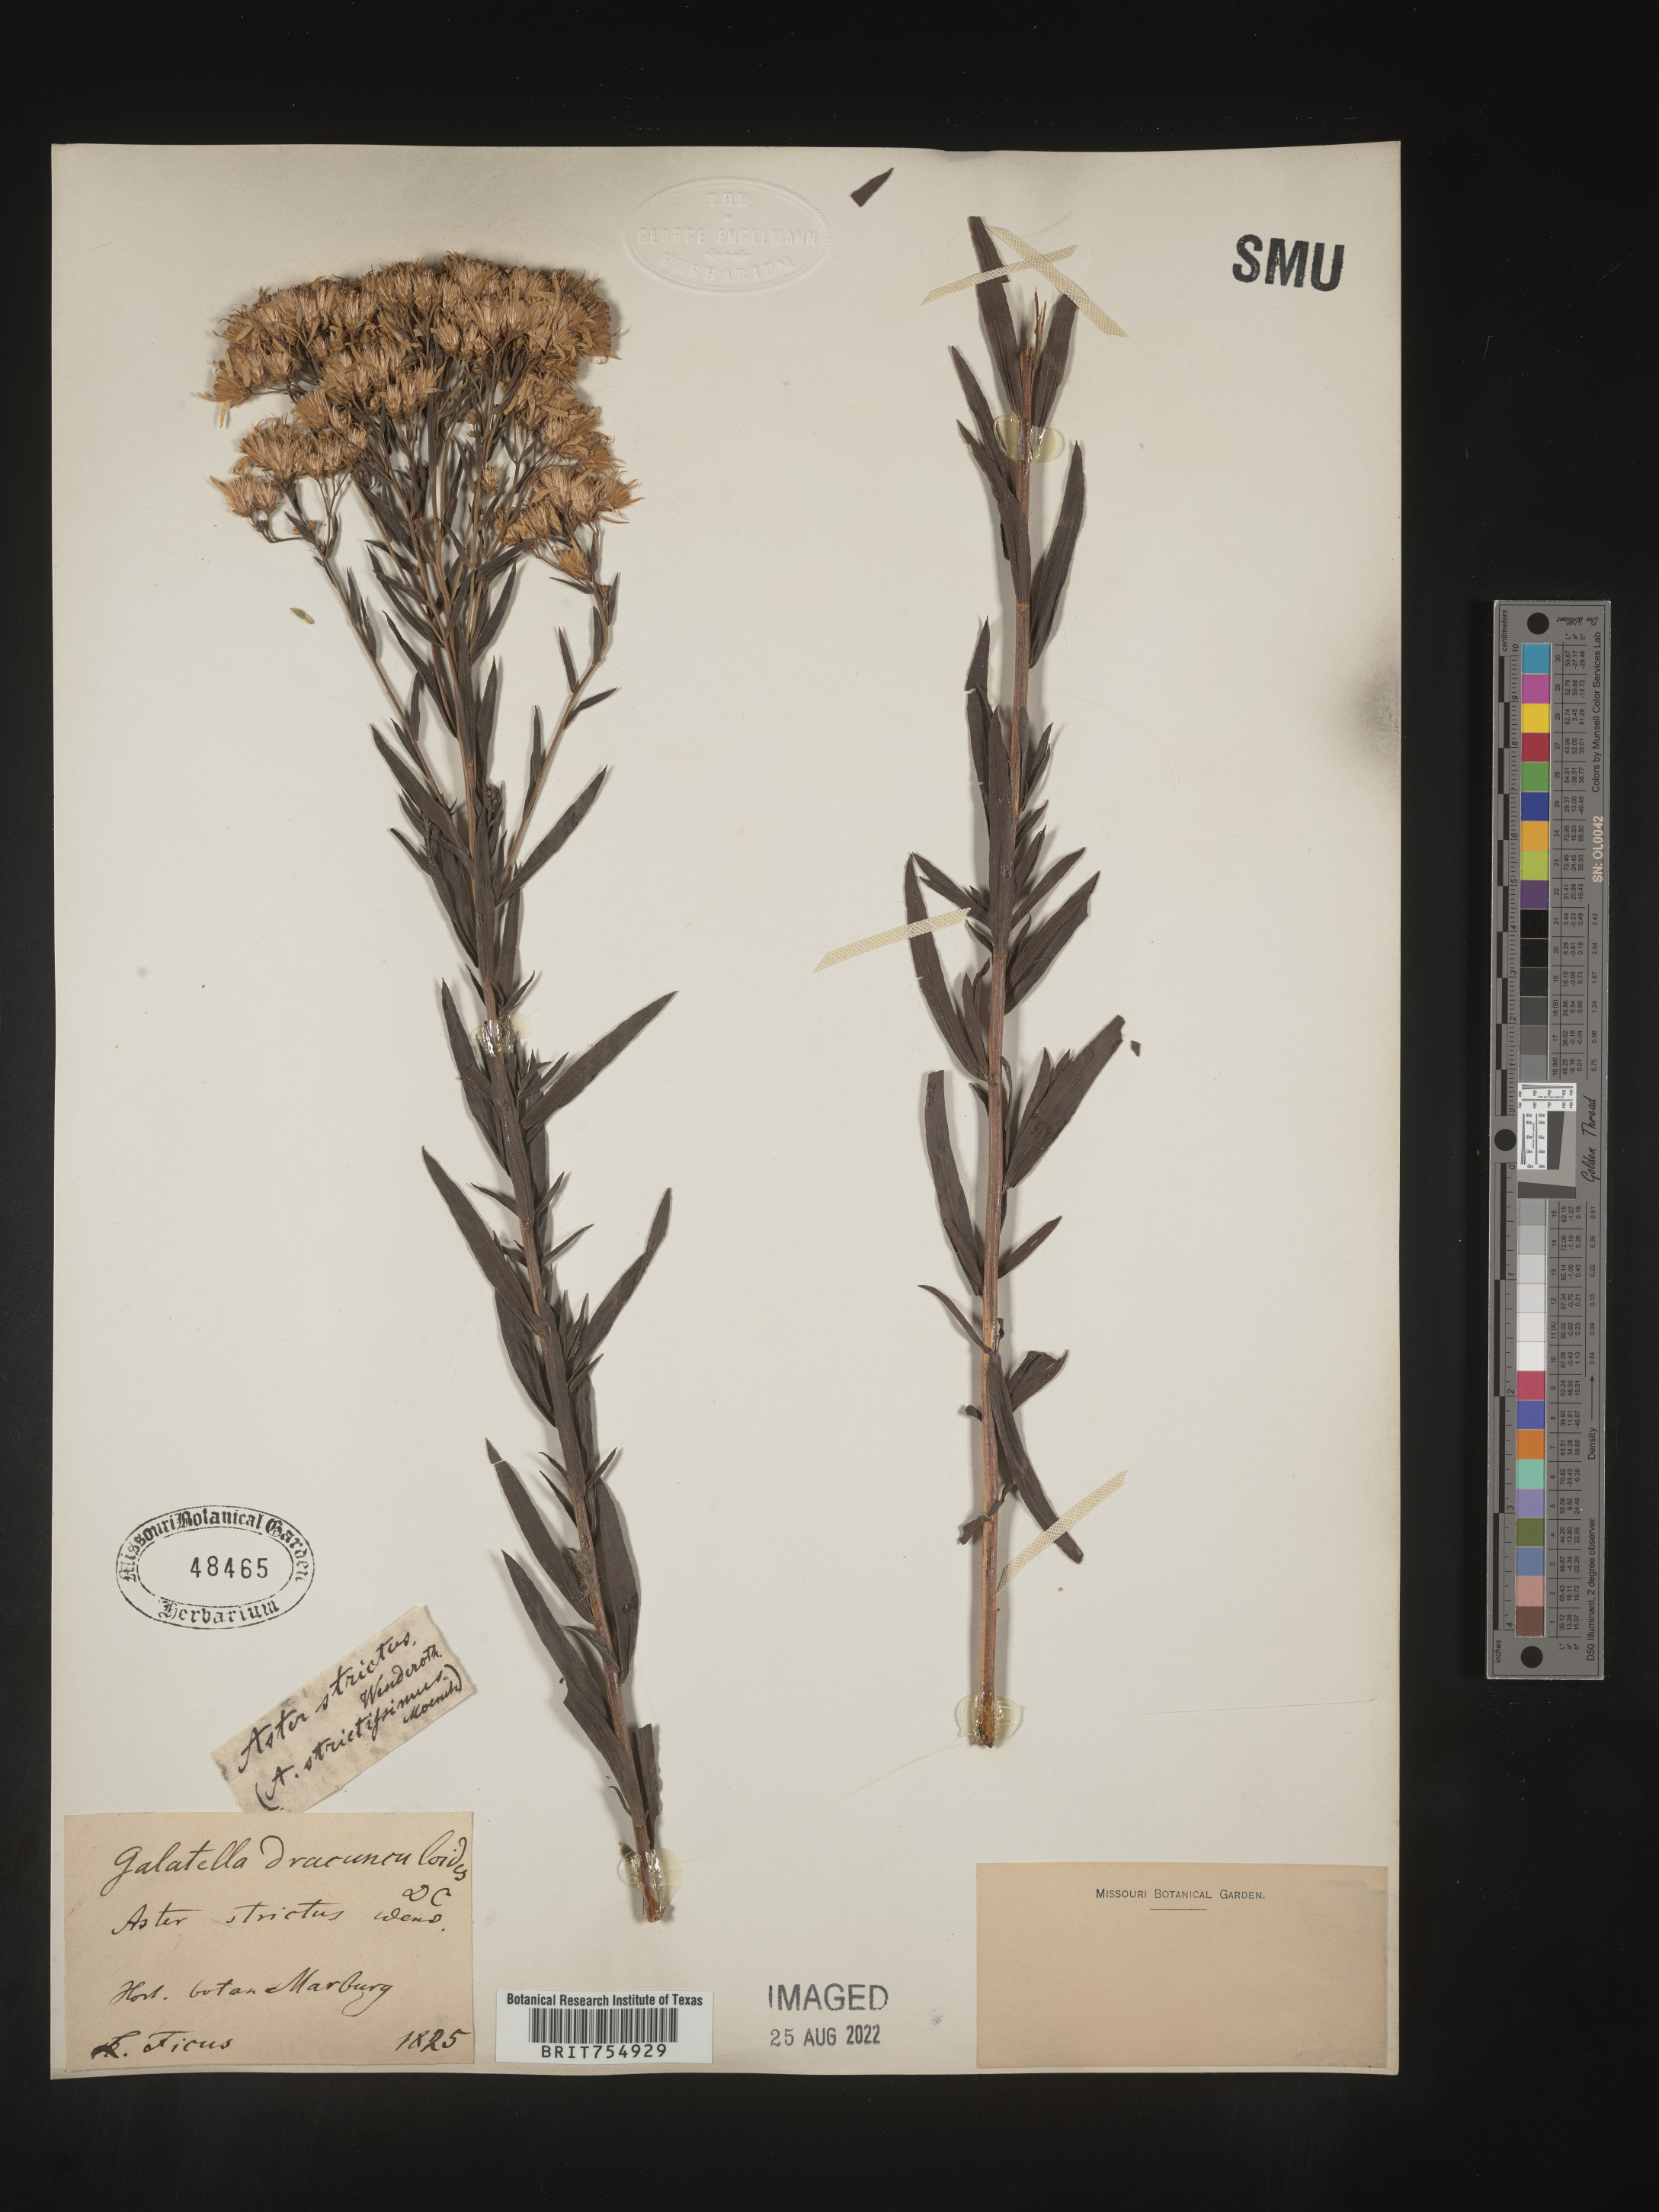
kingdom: Plantae
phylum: Tracheophyta
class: Magnoliopsida
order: Asterales
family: Asteraceae
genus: Symphyotrichum
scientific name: Symphyotrichum
